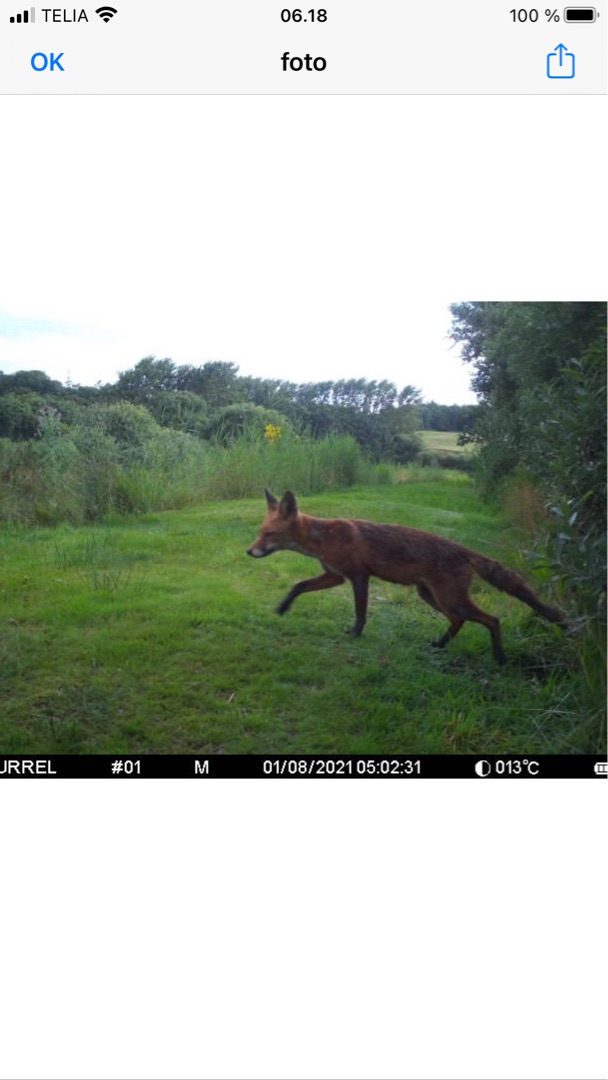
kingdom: Animalia
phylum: Chordata
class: Mammalia
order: Carnivora
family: Canidae
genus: Vulpes
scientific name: Vulpes vulpes
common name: Ræv
